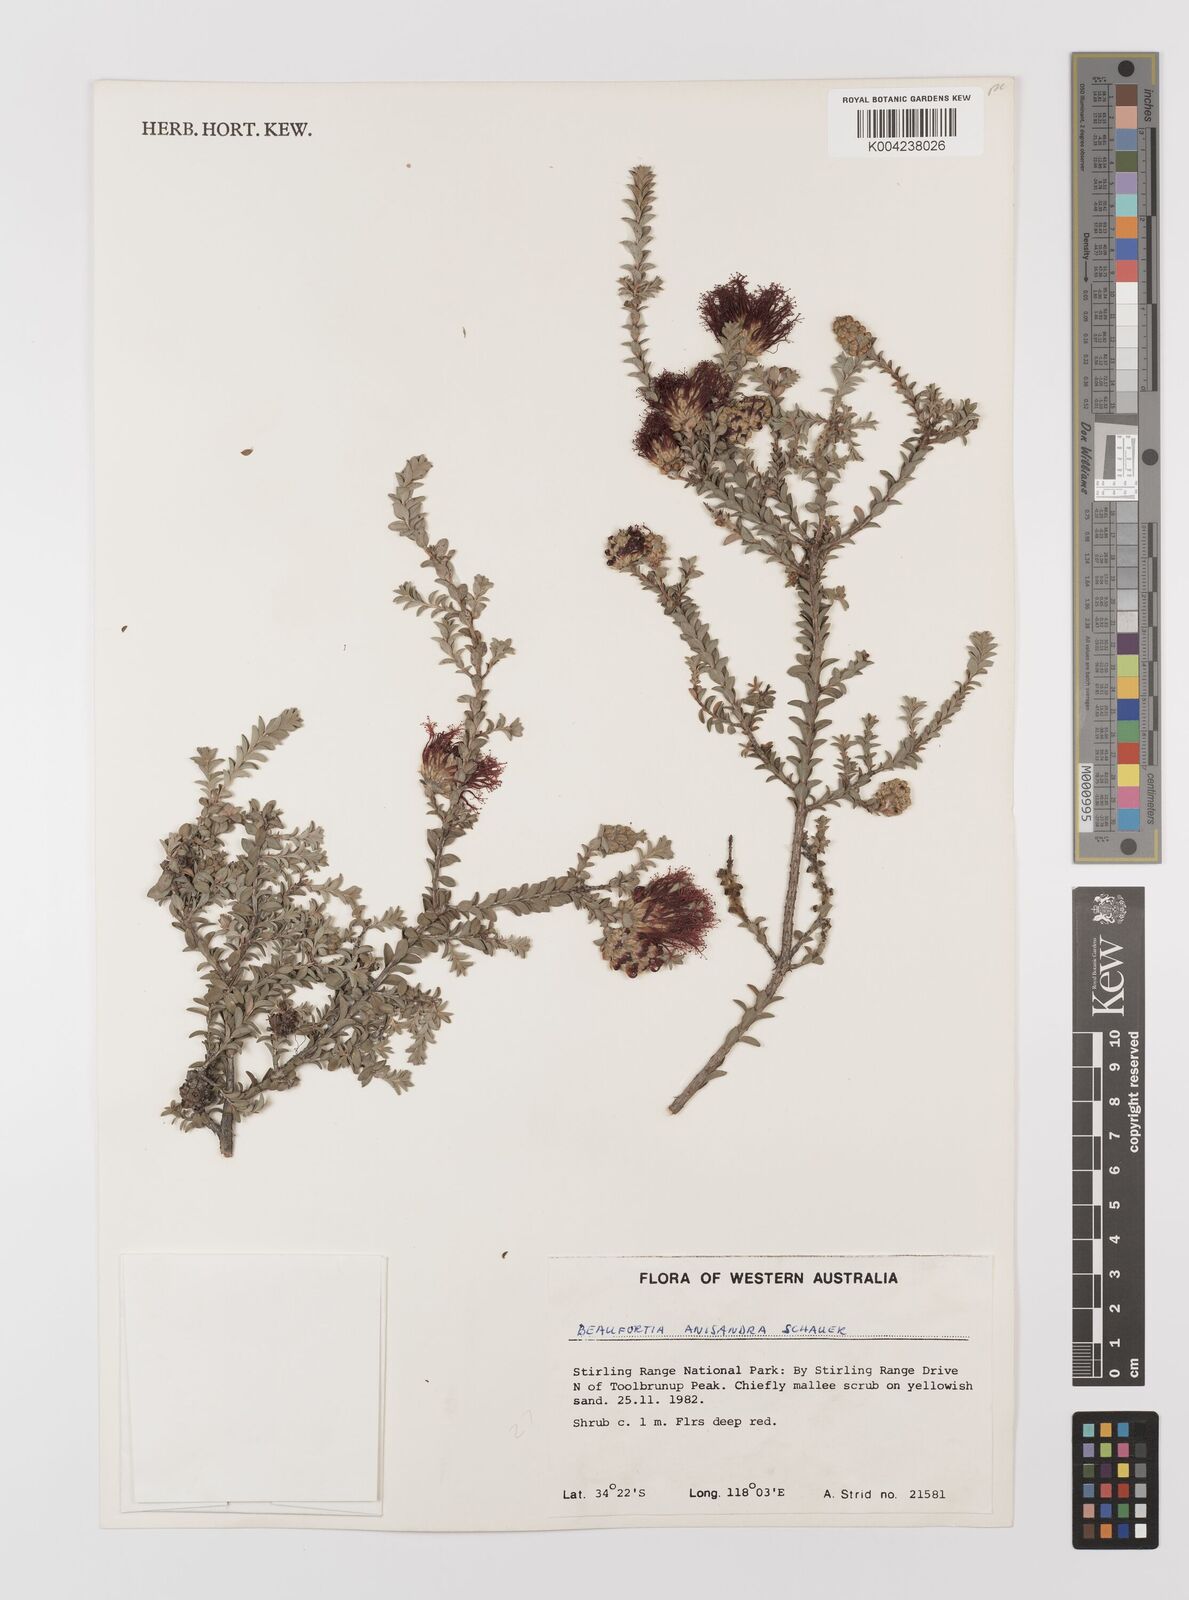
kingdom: Plantae
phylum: Tracheophyta
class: Magnoliopsida
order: Myrtales
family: Myrtaceae
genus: Melaleuca
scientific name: Melaleuca anisandra
